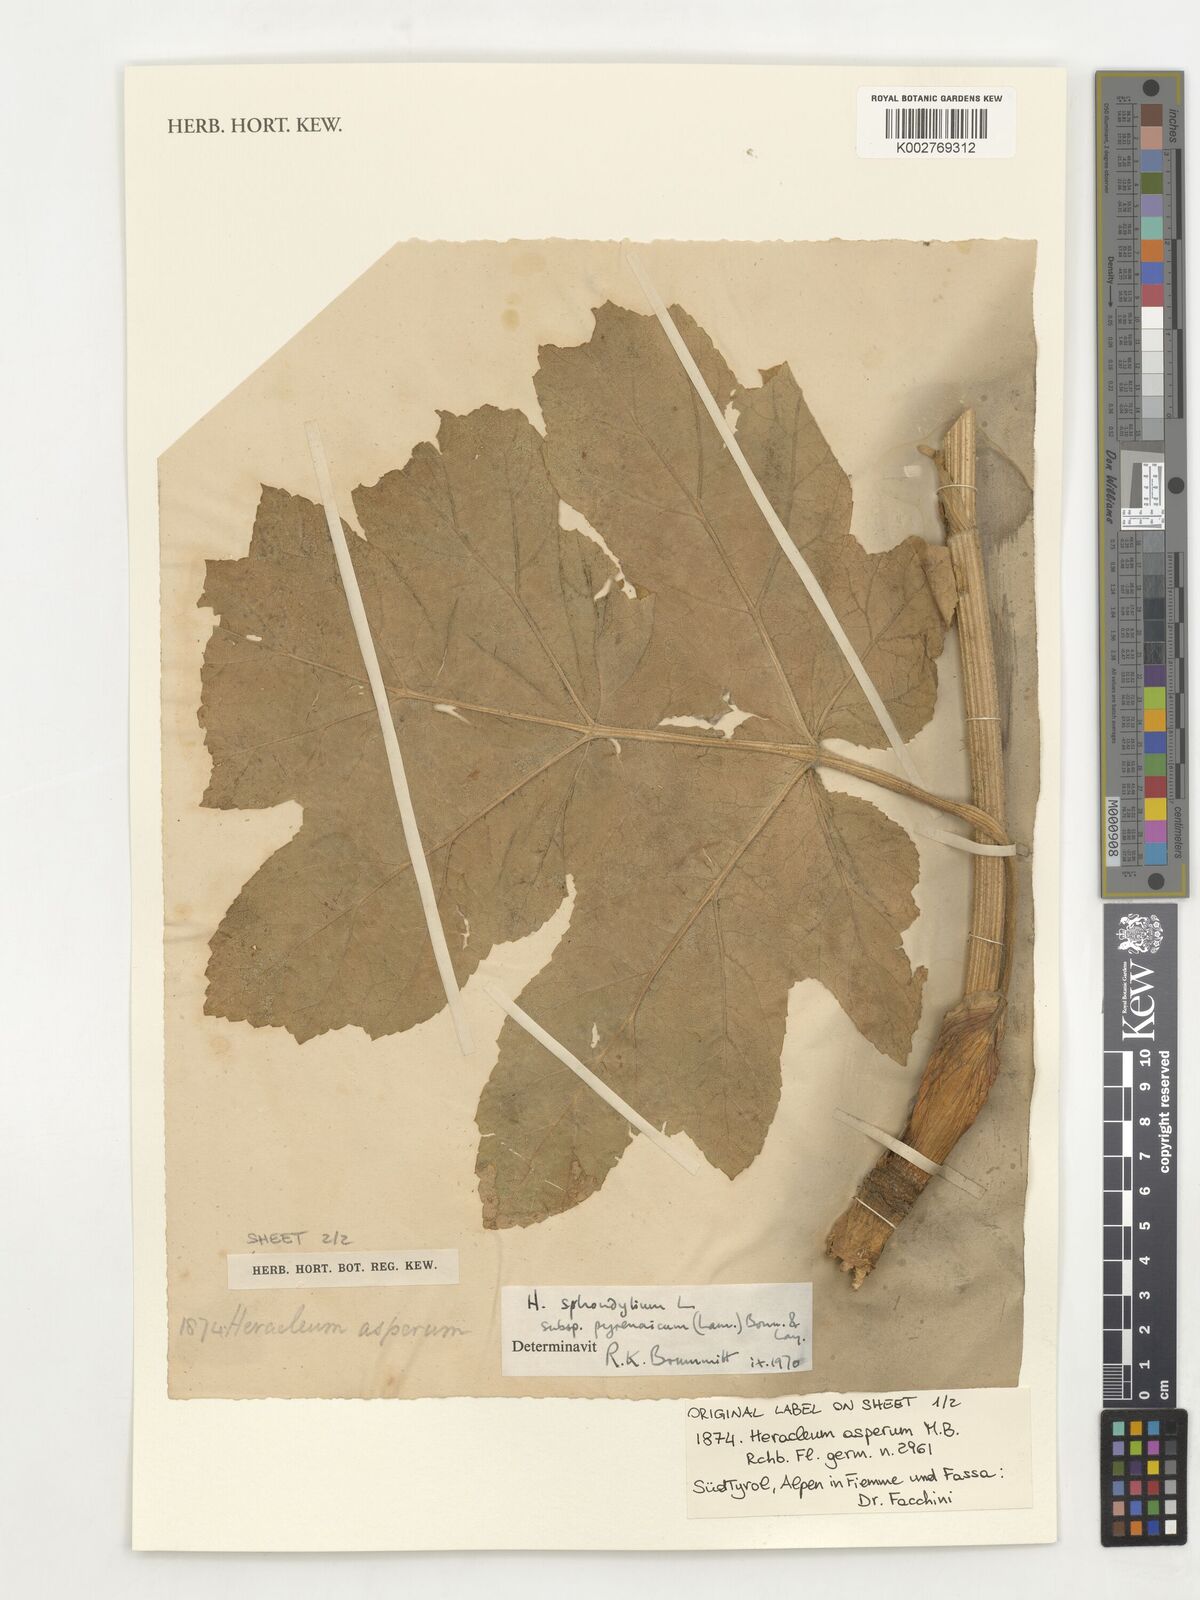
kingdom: Plantae
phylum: Tracheophyta
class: Magnoliopsida
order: Apiales
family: Apiaceae
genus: Heracleum
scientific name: Heracleum sphondylium
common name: Hogweed
